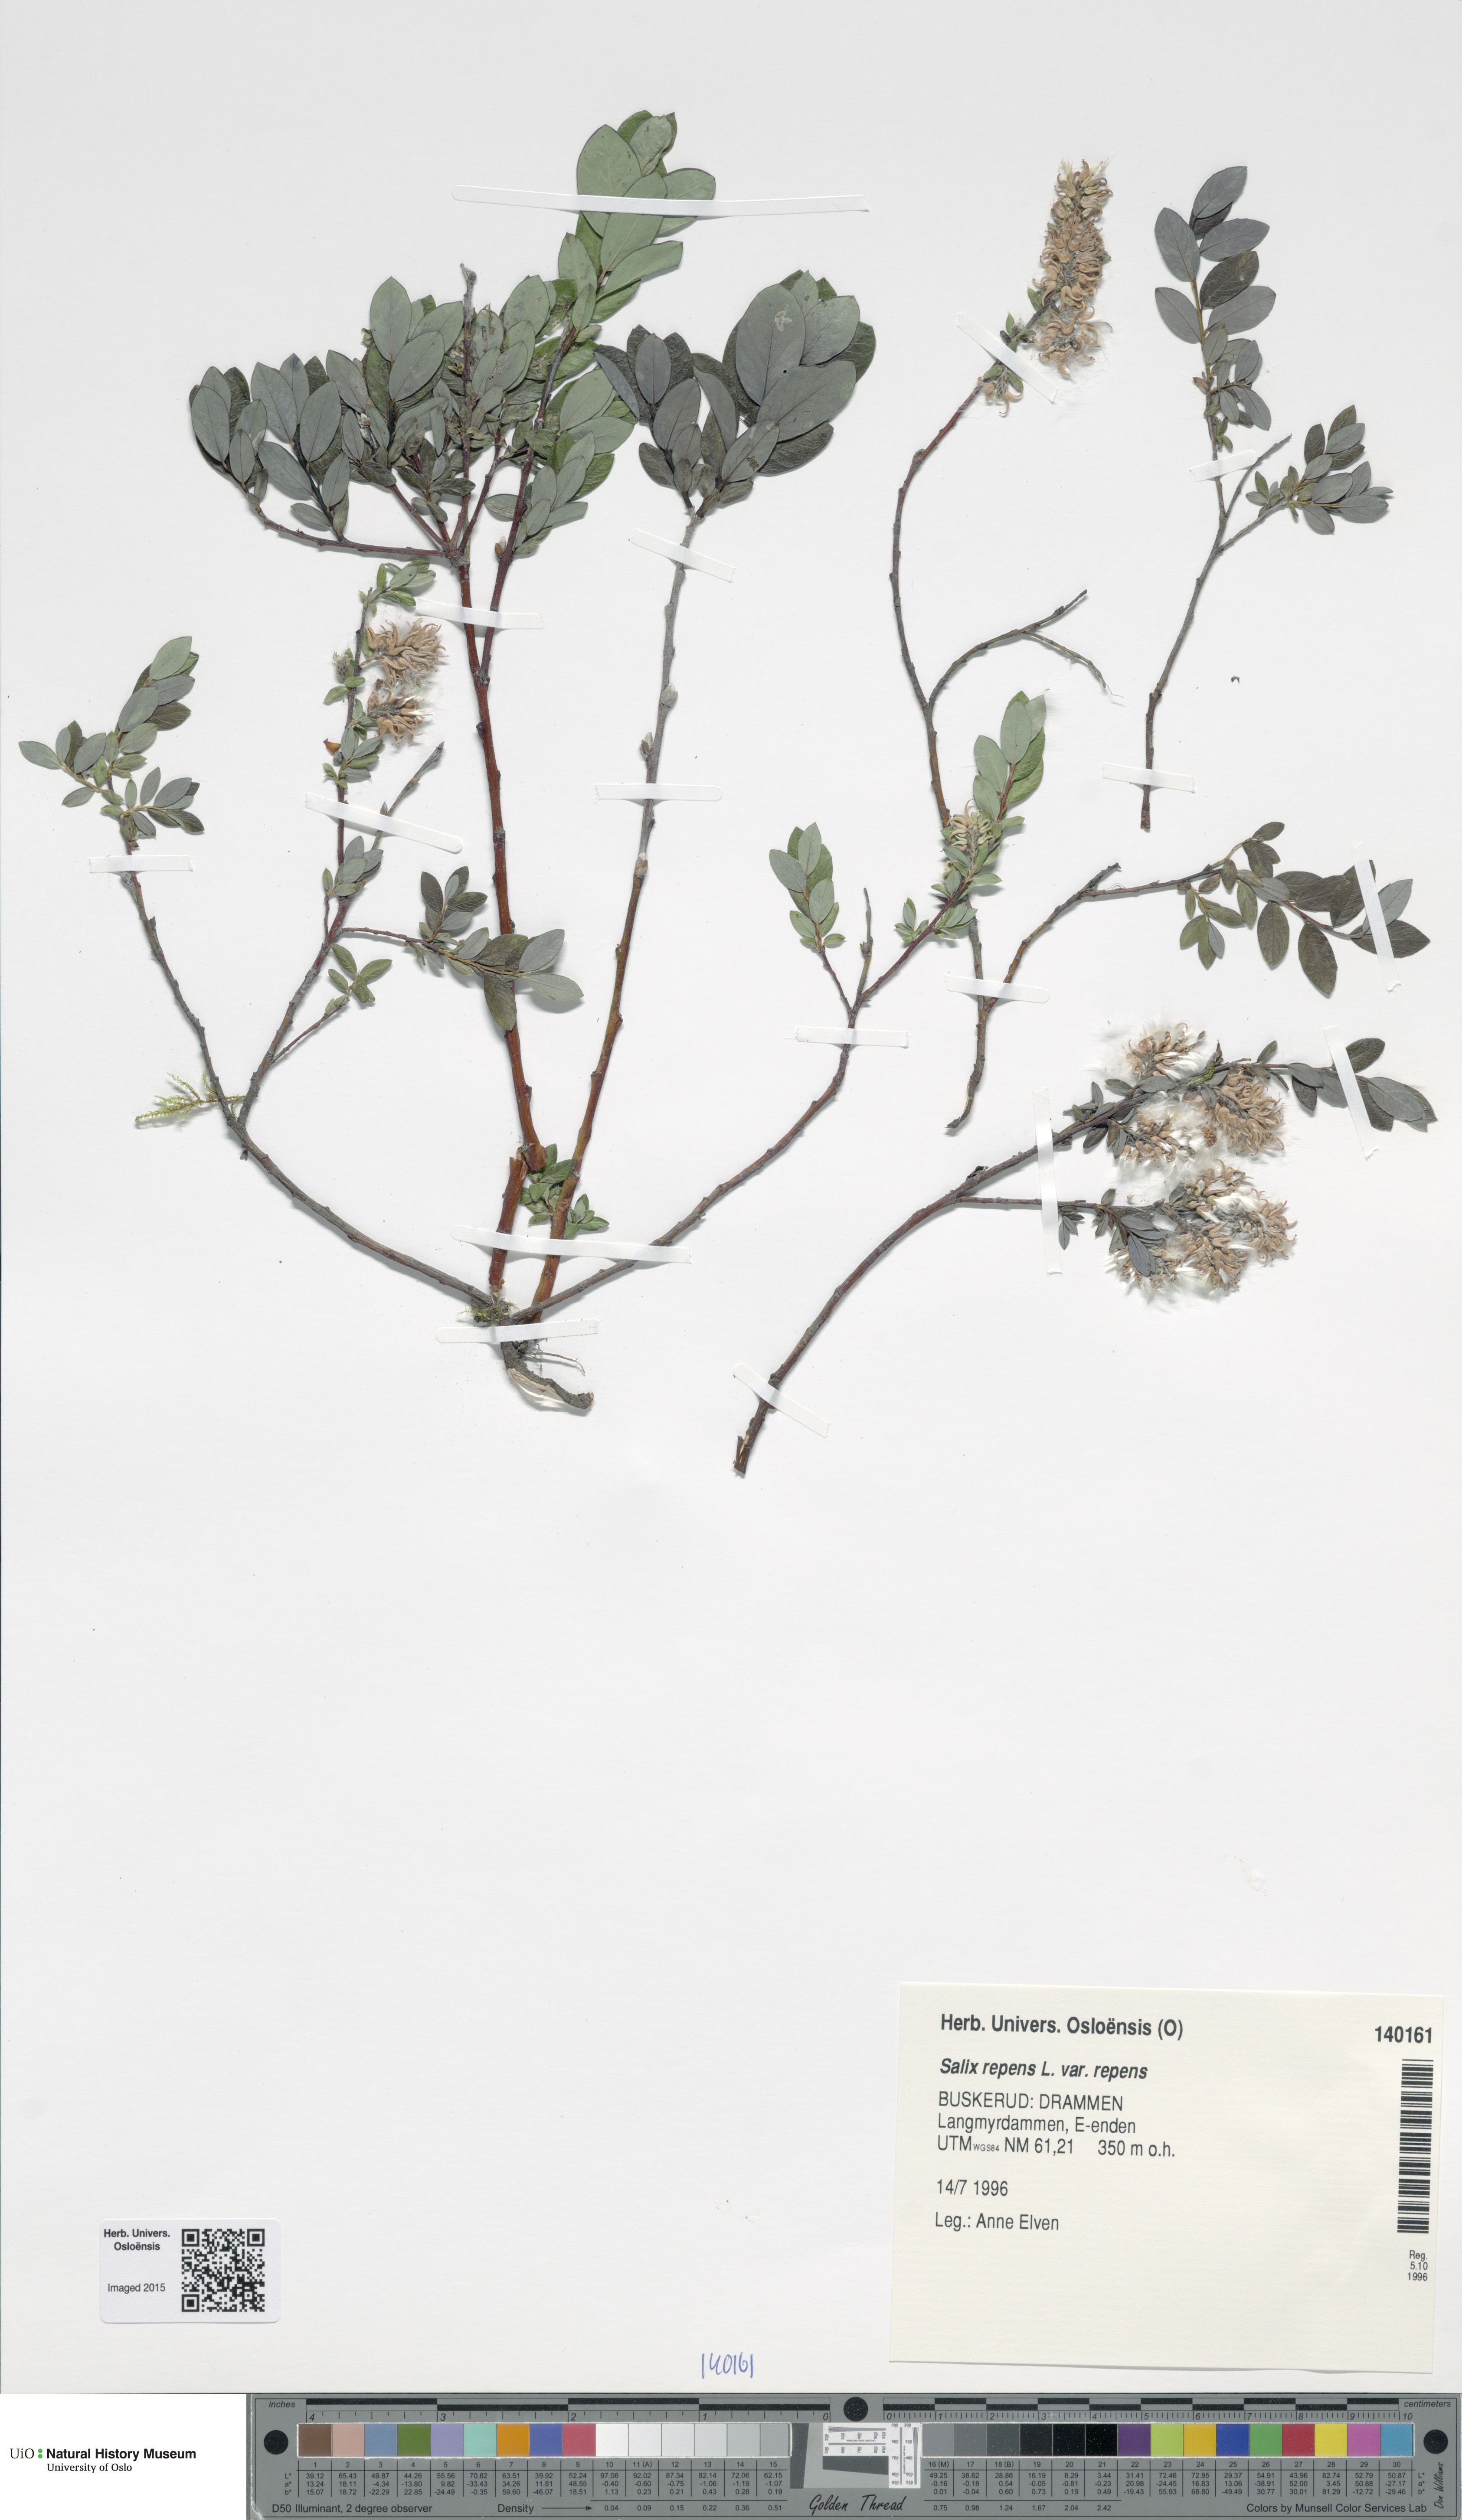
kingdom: Plantae
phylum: Tracheophyta
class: Magnoliopsida
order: Malpighiales
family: Salicaceae
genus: Salix
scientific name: Salix repens
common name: Creeping willow
